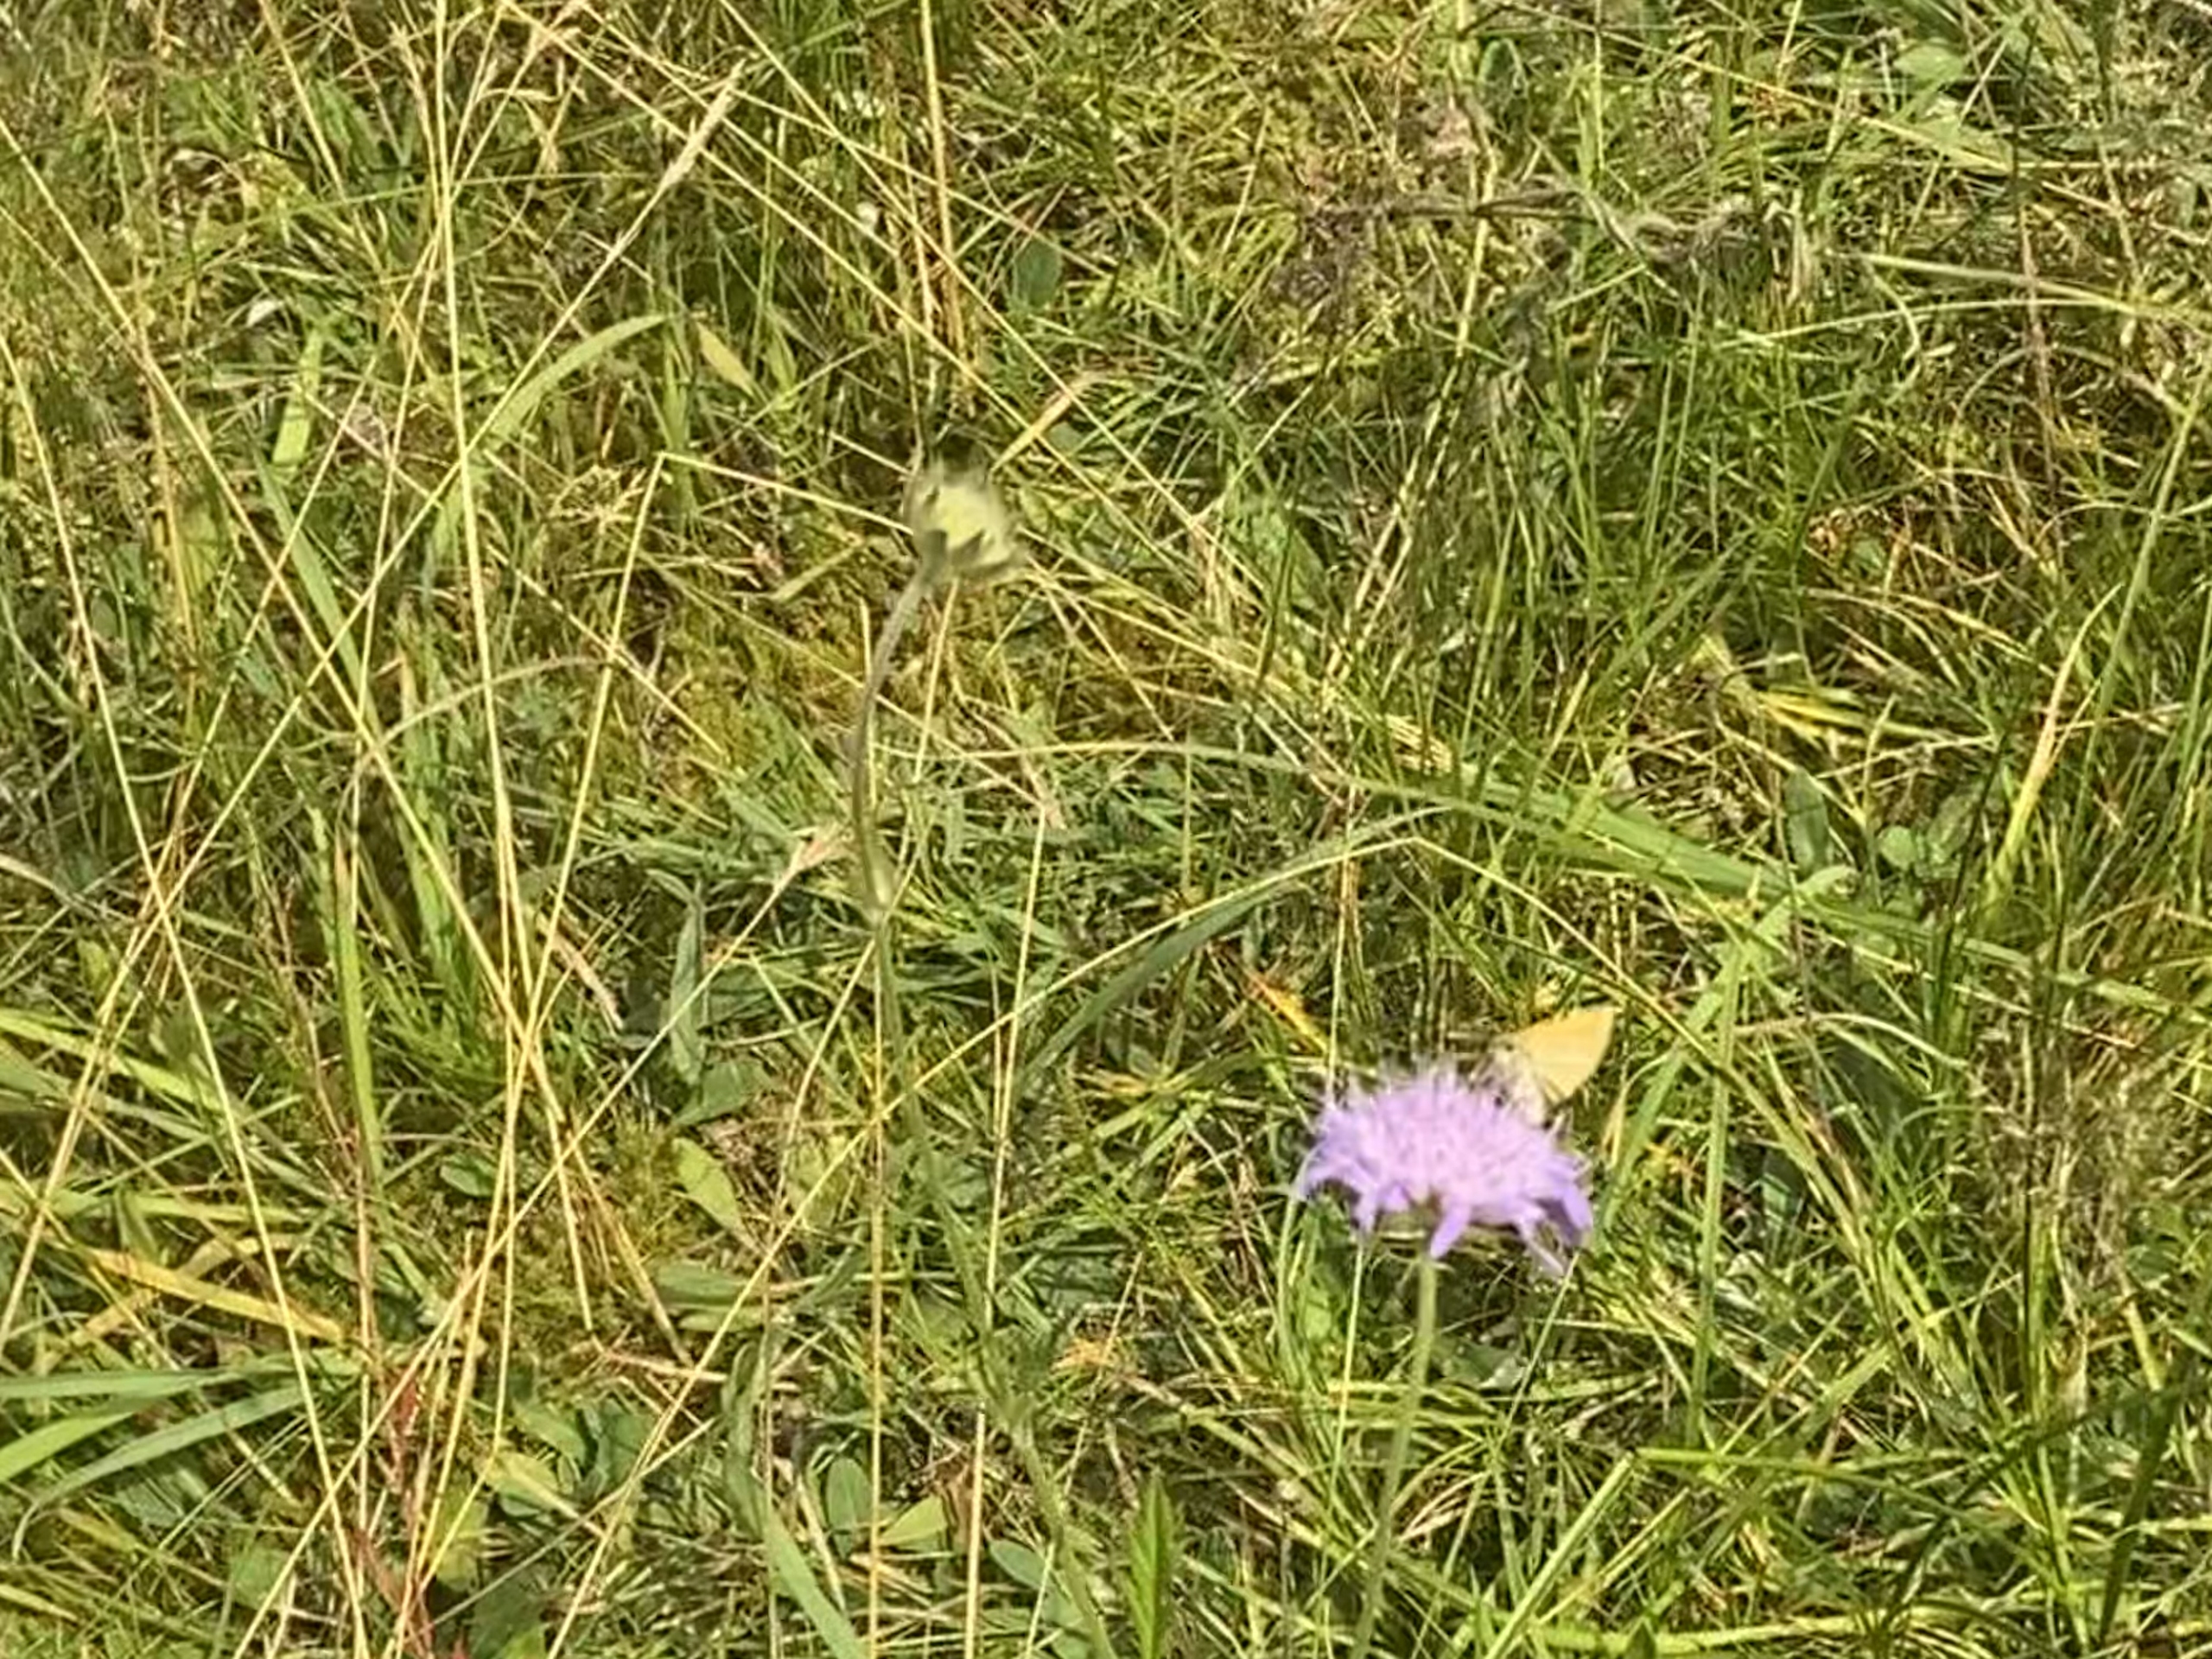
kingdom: Animalia
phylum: Arthropoda
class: Insecta
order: Lepidoptera
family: Hesperiidae
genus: Thymelicus
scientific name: Thymelicus lineola
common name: Stregbredpande
